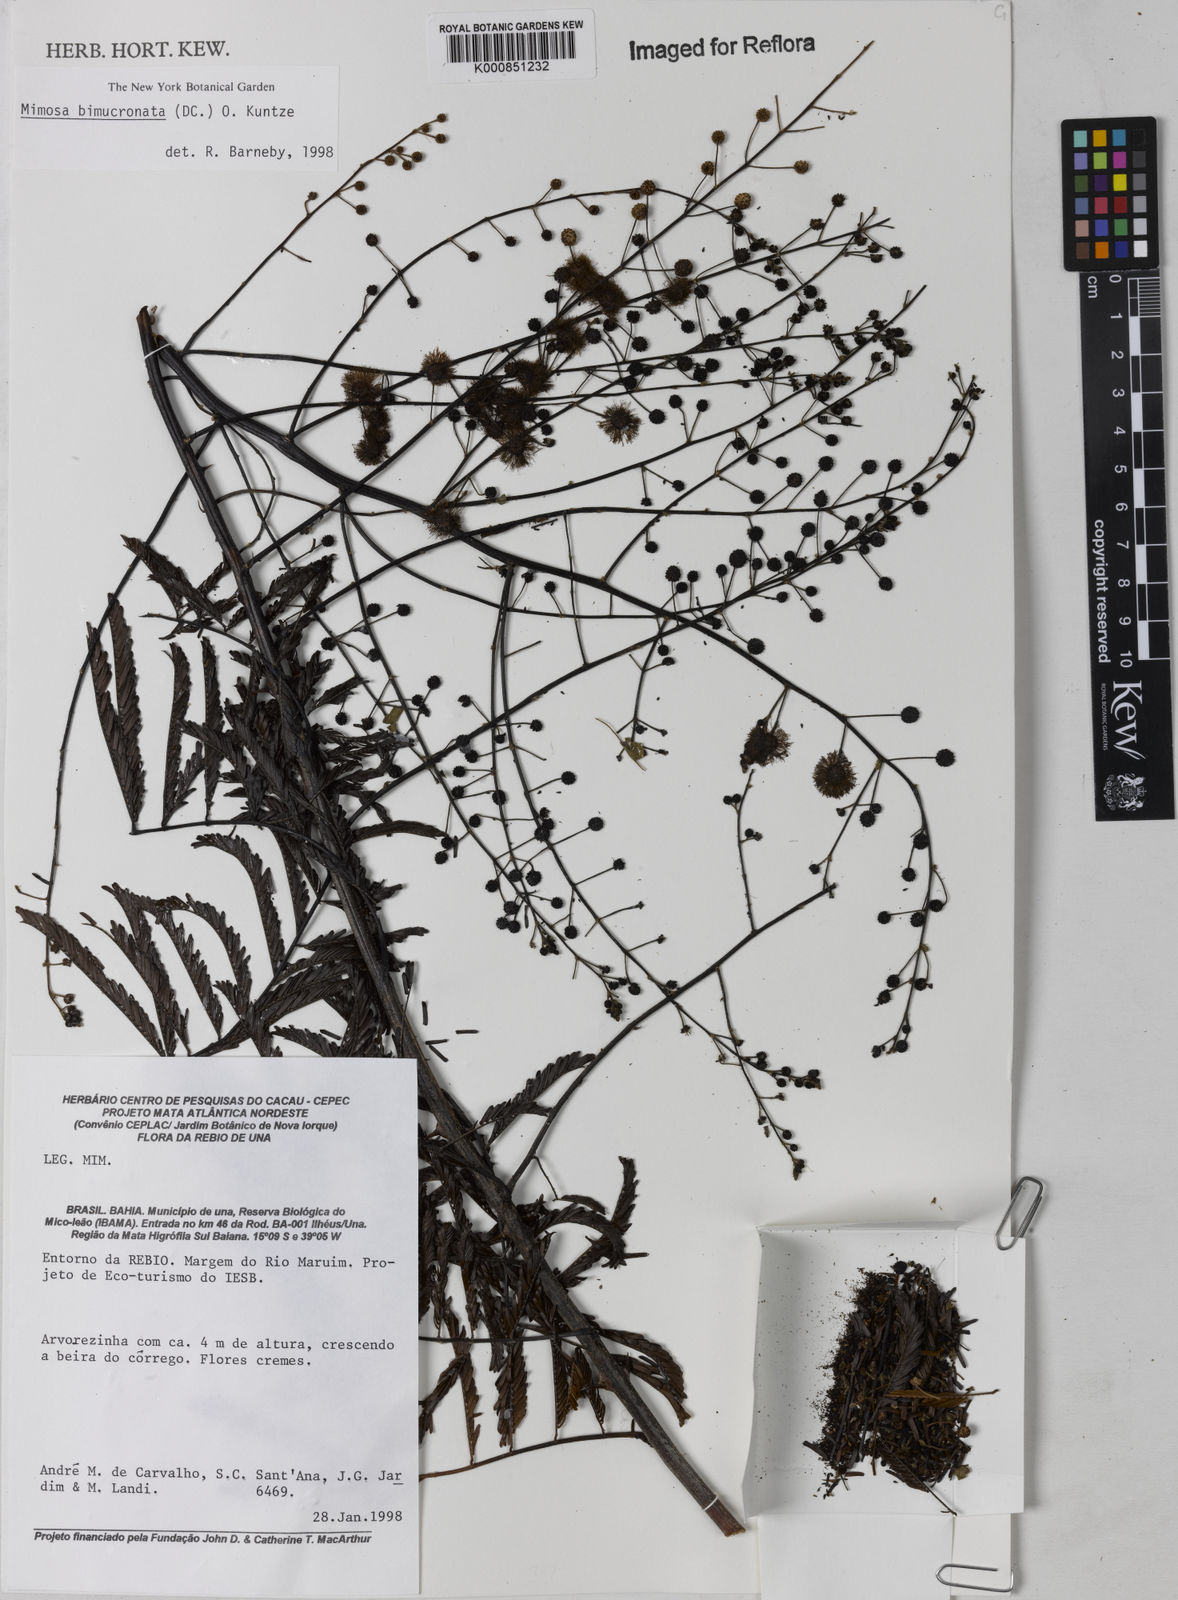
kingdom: Plantae
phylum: Tracheophyta
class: Magnoliopsida
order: Fabales
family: Fabaceae
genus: Mimosa
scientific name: Mimosa bimucronata
